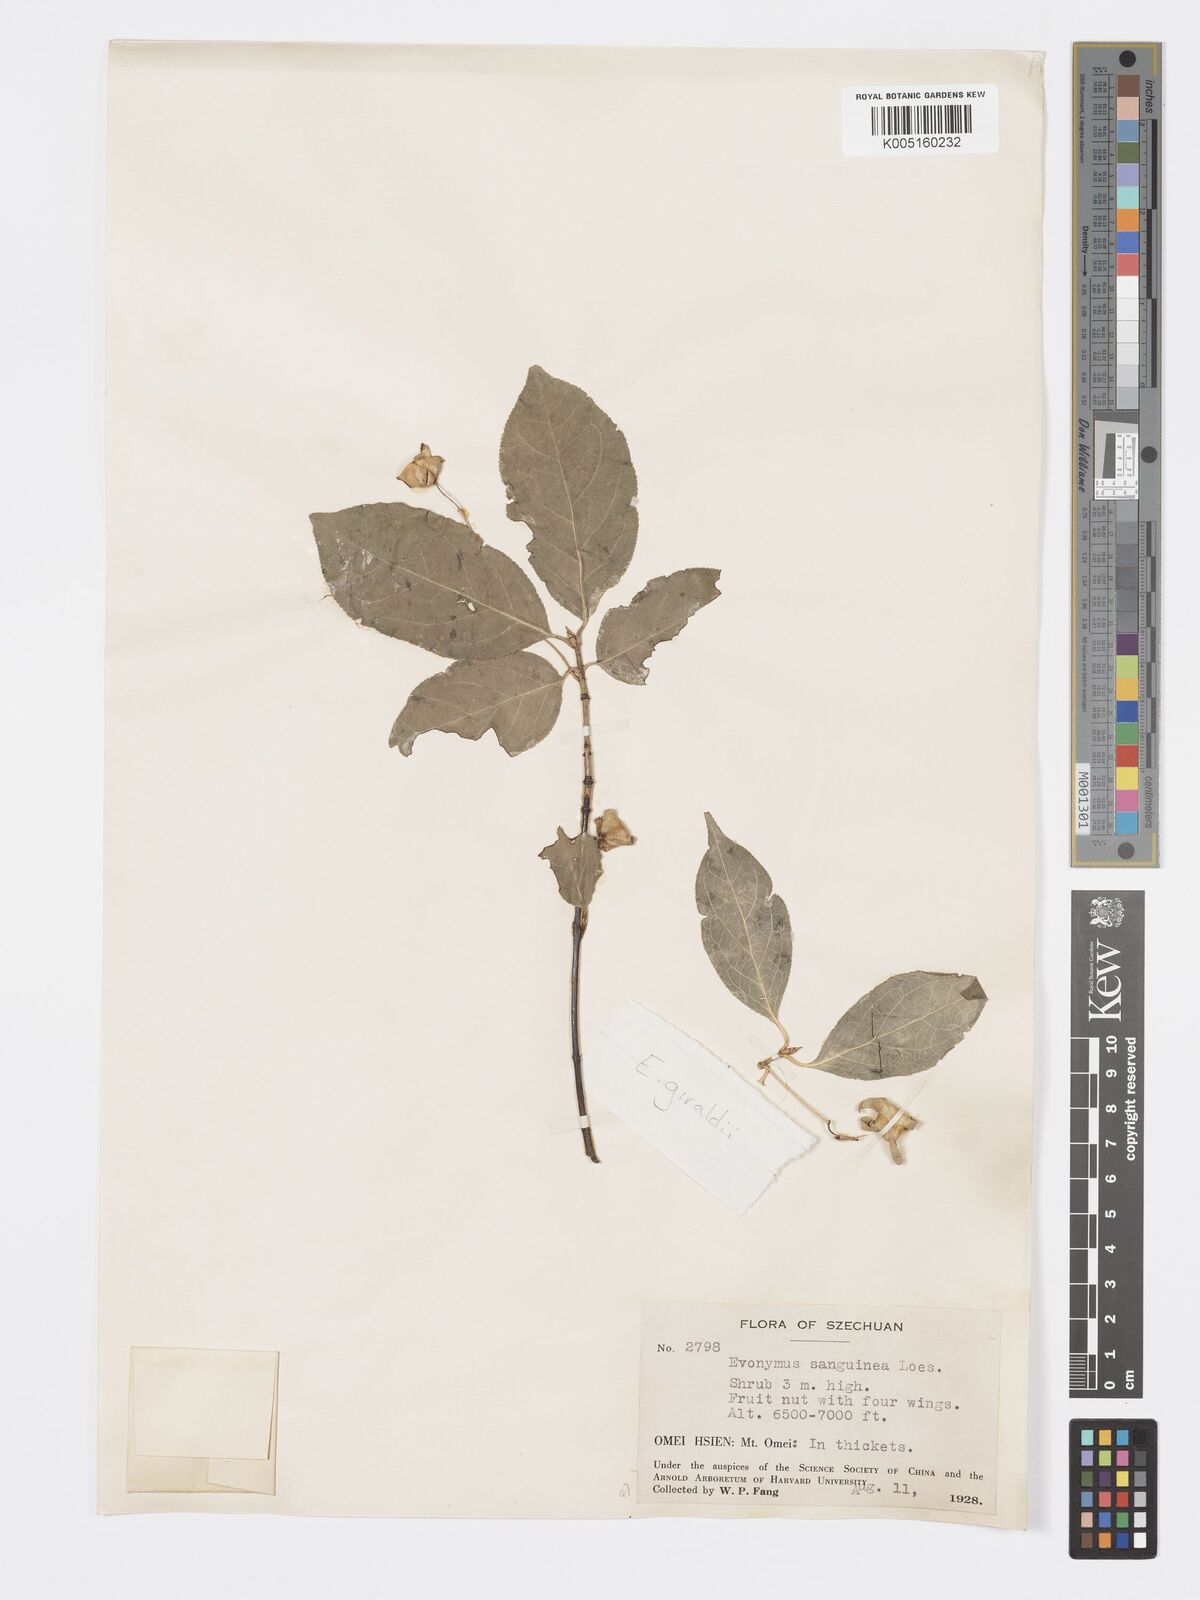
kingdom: Plantae
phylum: Tracheophyta
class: Magnoliopsida
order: Celastrales
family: Celastraceae
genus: Euonymus
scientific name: Euonymus giraldii
